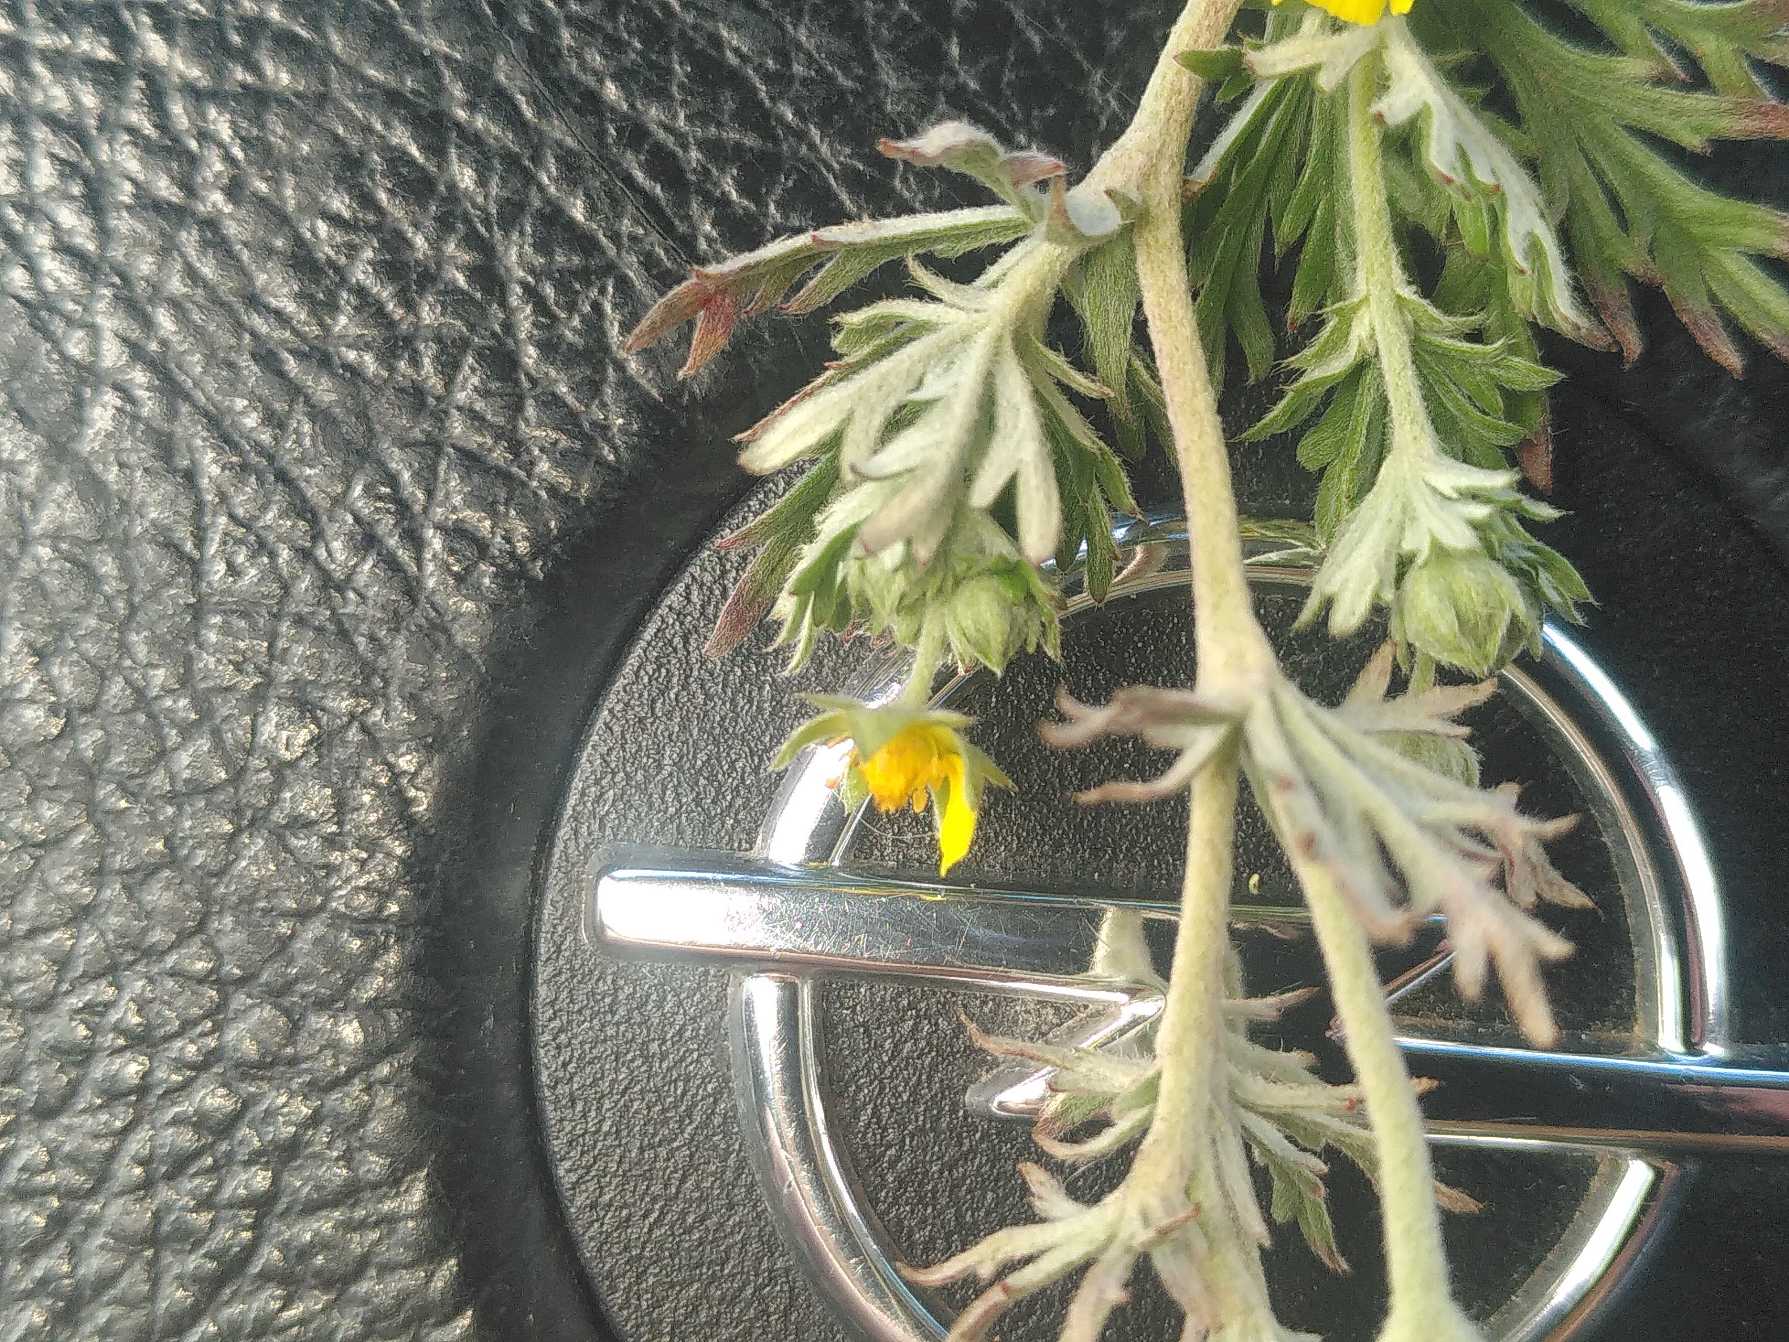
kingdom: Plantae
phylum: Tracheophyta
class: Magnoliopsida
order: Rosales
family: Rosaceae
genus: Potentilla
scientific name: Potentilla argentea
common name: Sølv-potentil
